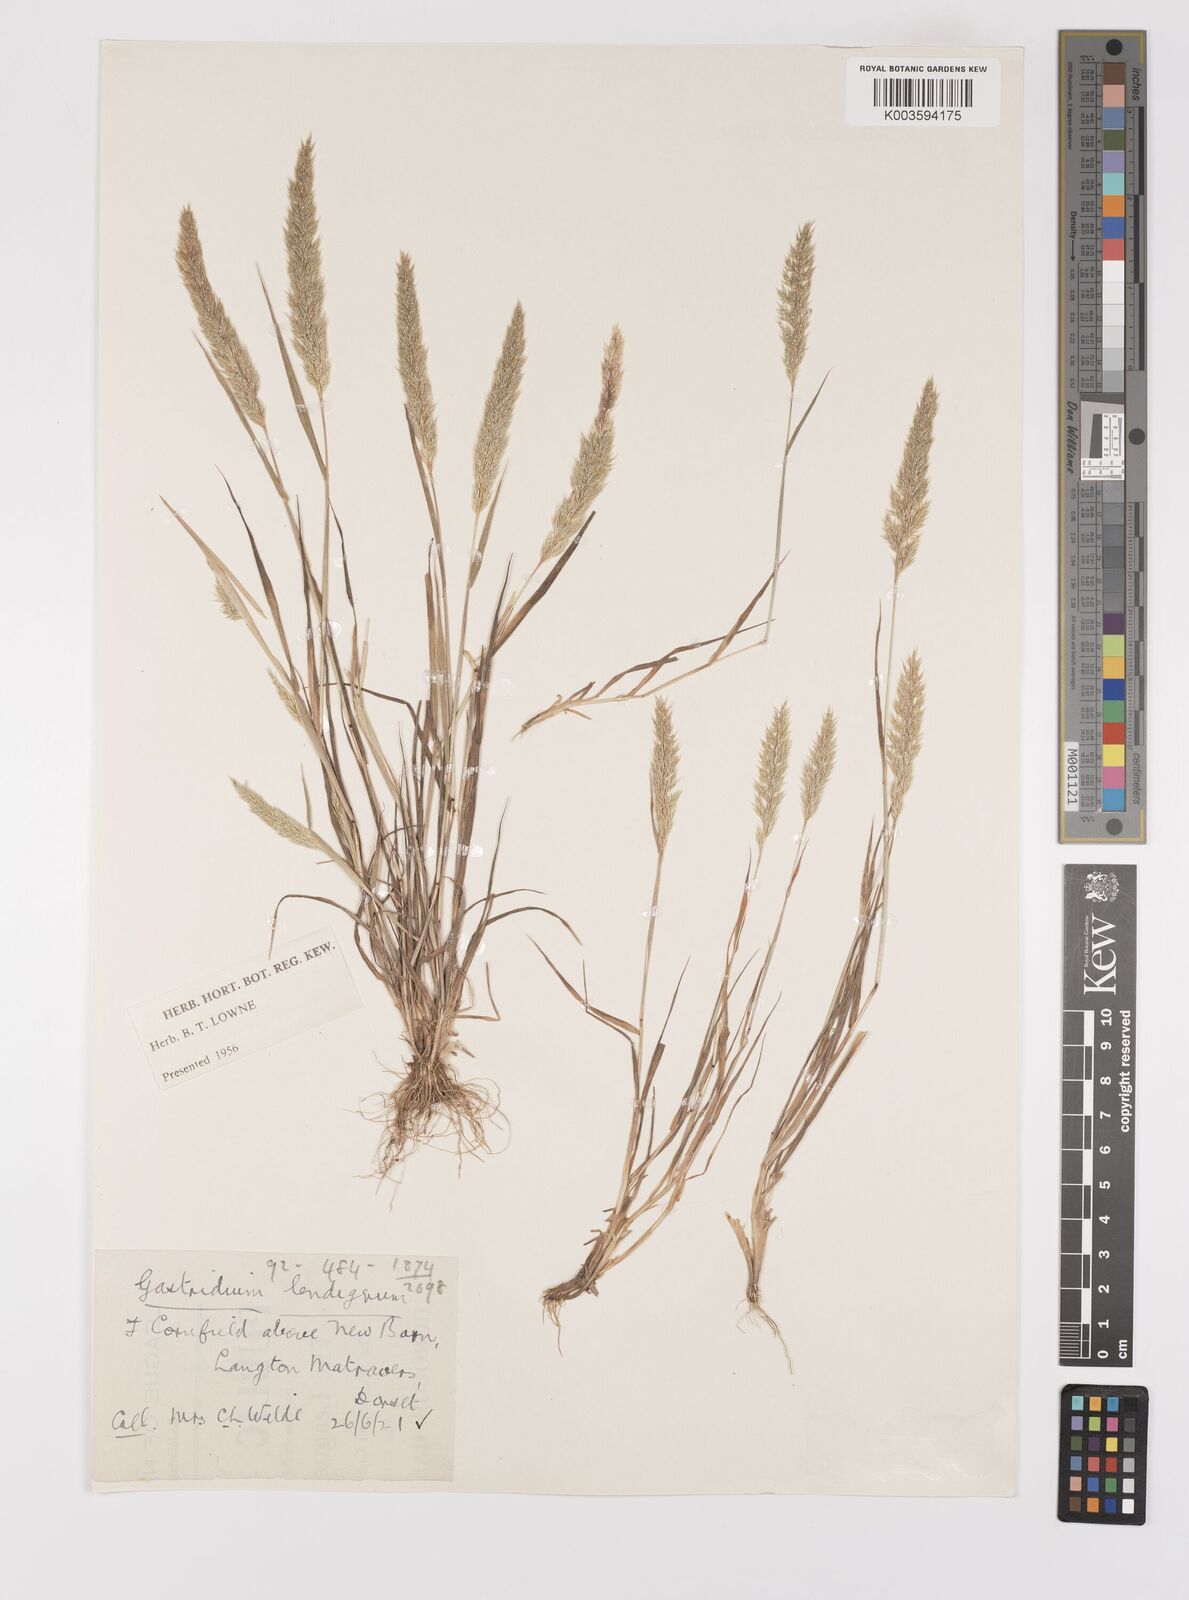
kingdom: Plantae
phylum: Tracheophyta
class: Liliopsida
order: Poales
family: Poaceae
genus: Gastridium
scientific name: Gastridium ventricosum
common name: Nit-grass
